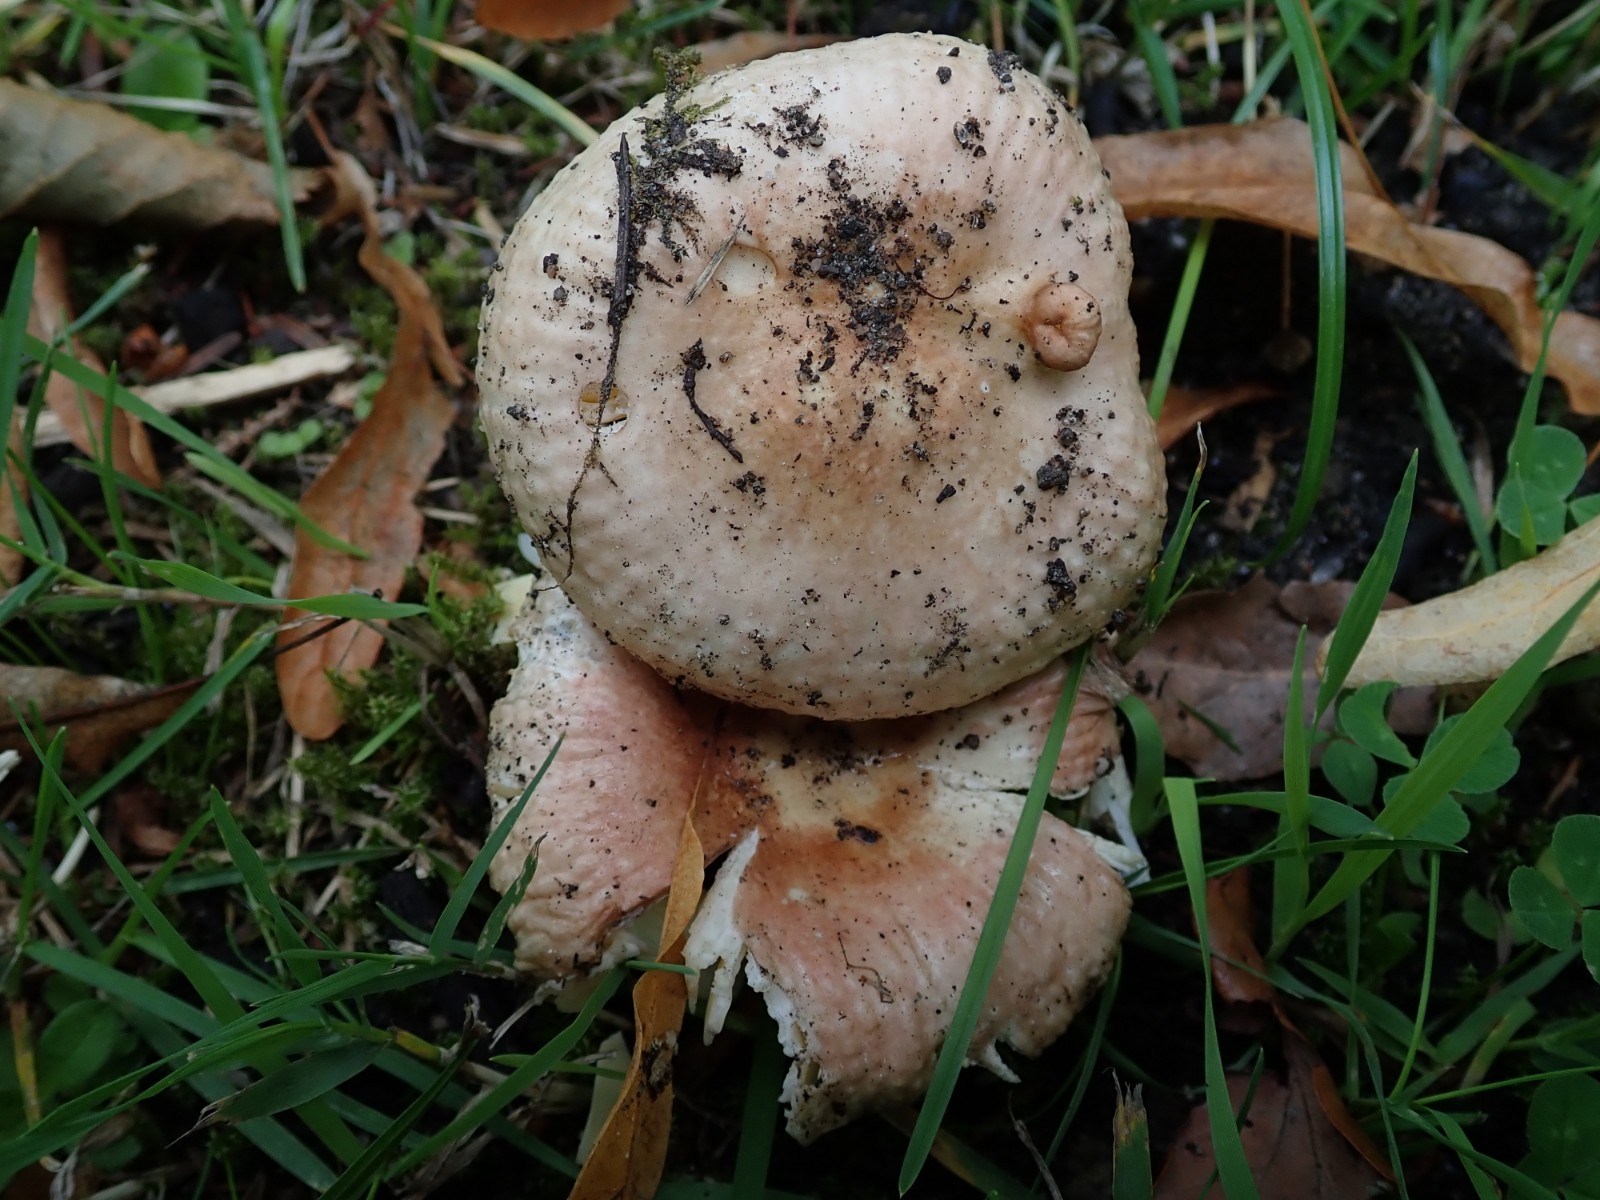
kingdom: Fungi
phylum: Basidiomycota
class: Agaricomycetes
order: Russulales
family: Russulaceae
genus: Russula
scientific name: Russula nauseosa
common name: spinkel skørhat
